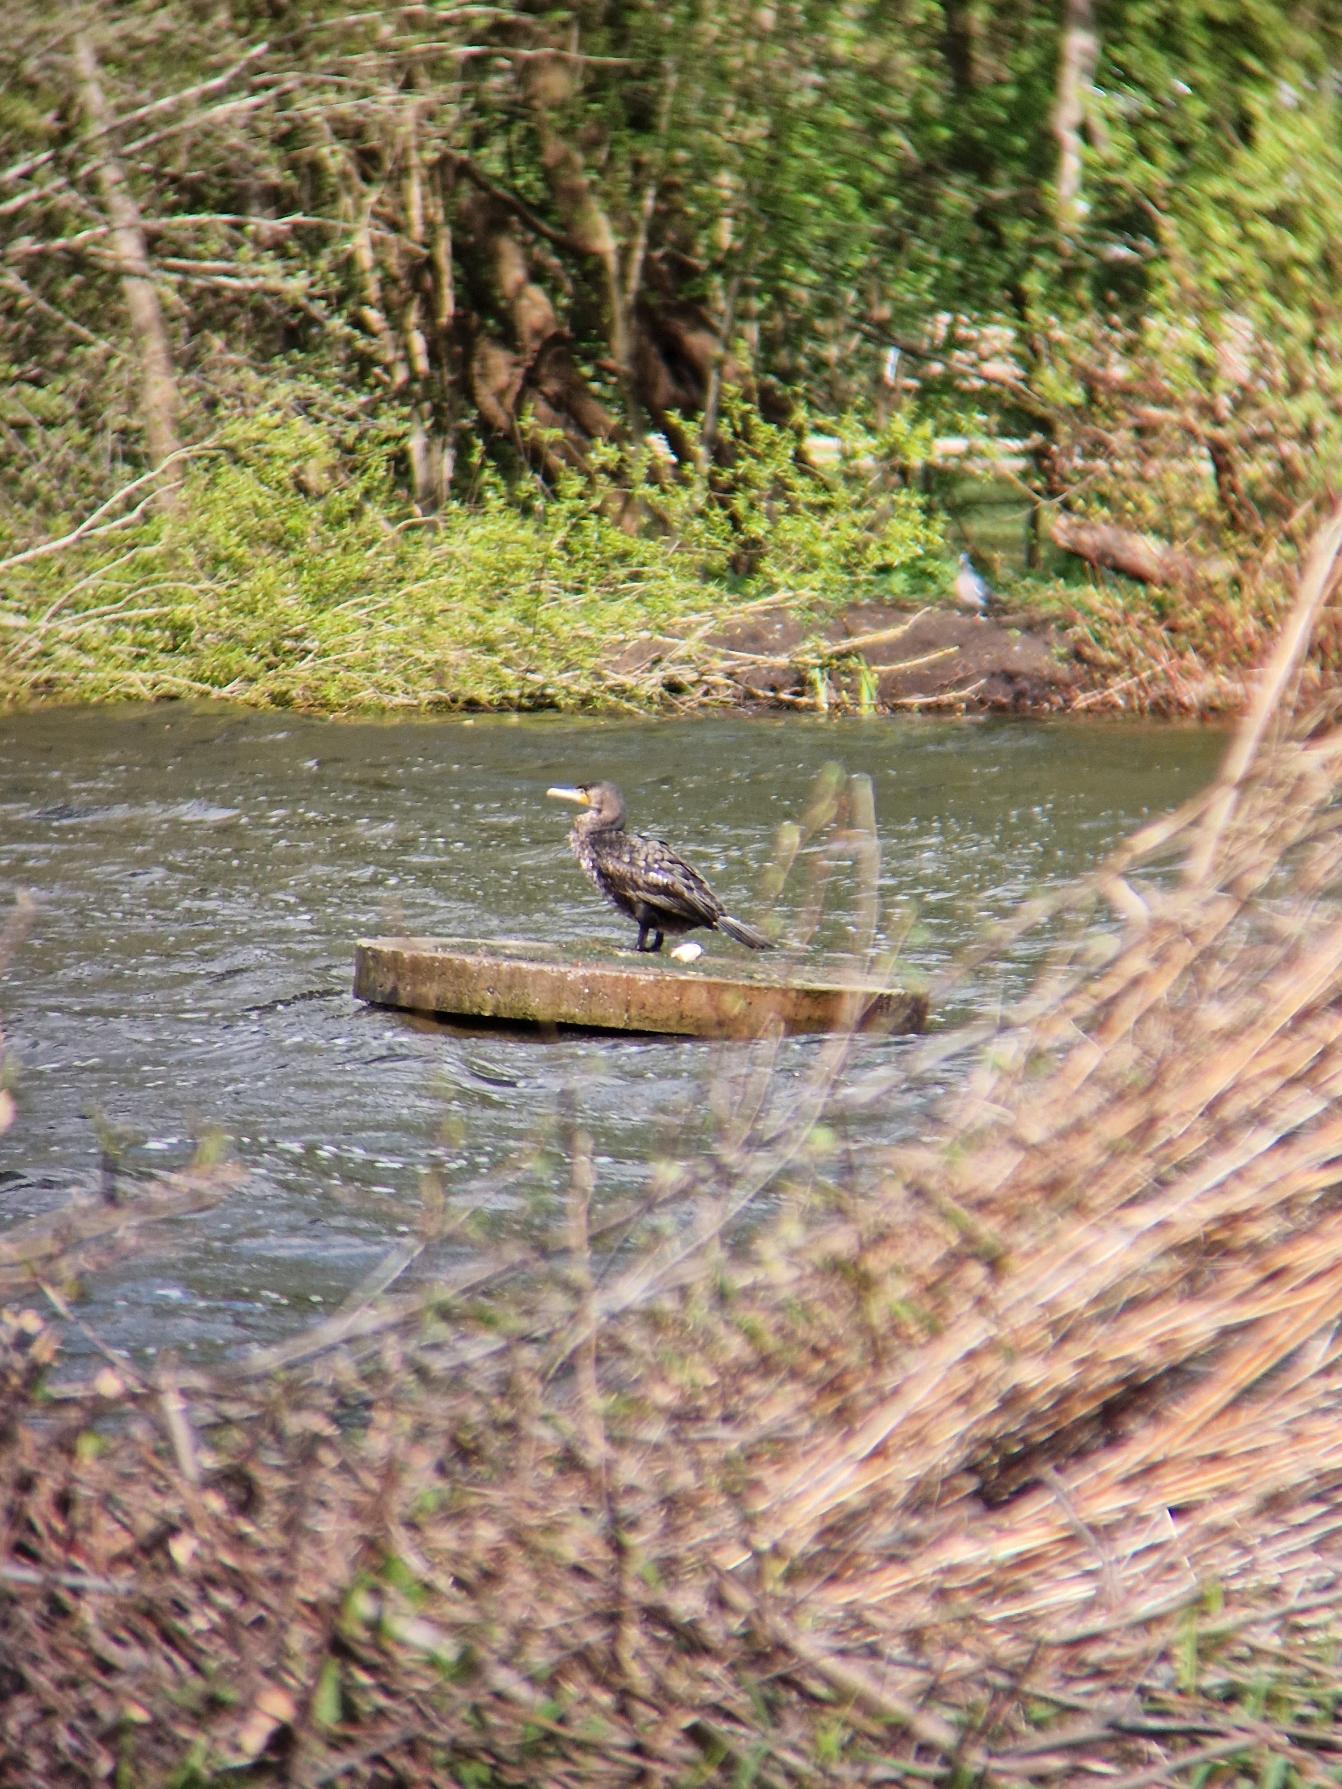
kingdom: Animalia
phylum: Chordata
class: Aves
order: Suliformes
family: Phalacrocoracidae
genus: Phalacrocorax
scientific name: Phalacrocorax carbo
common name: Skarv
